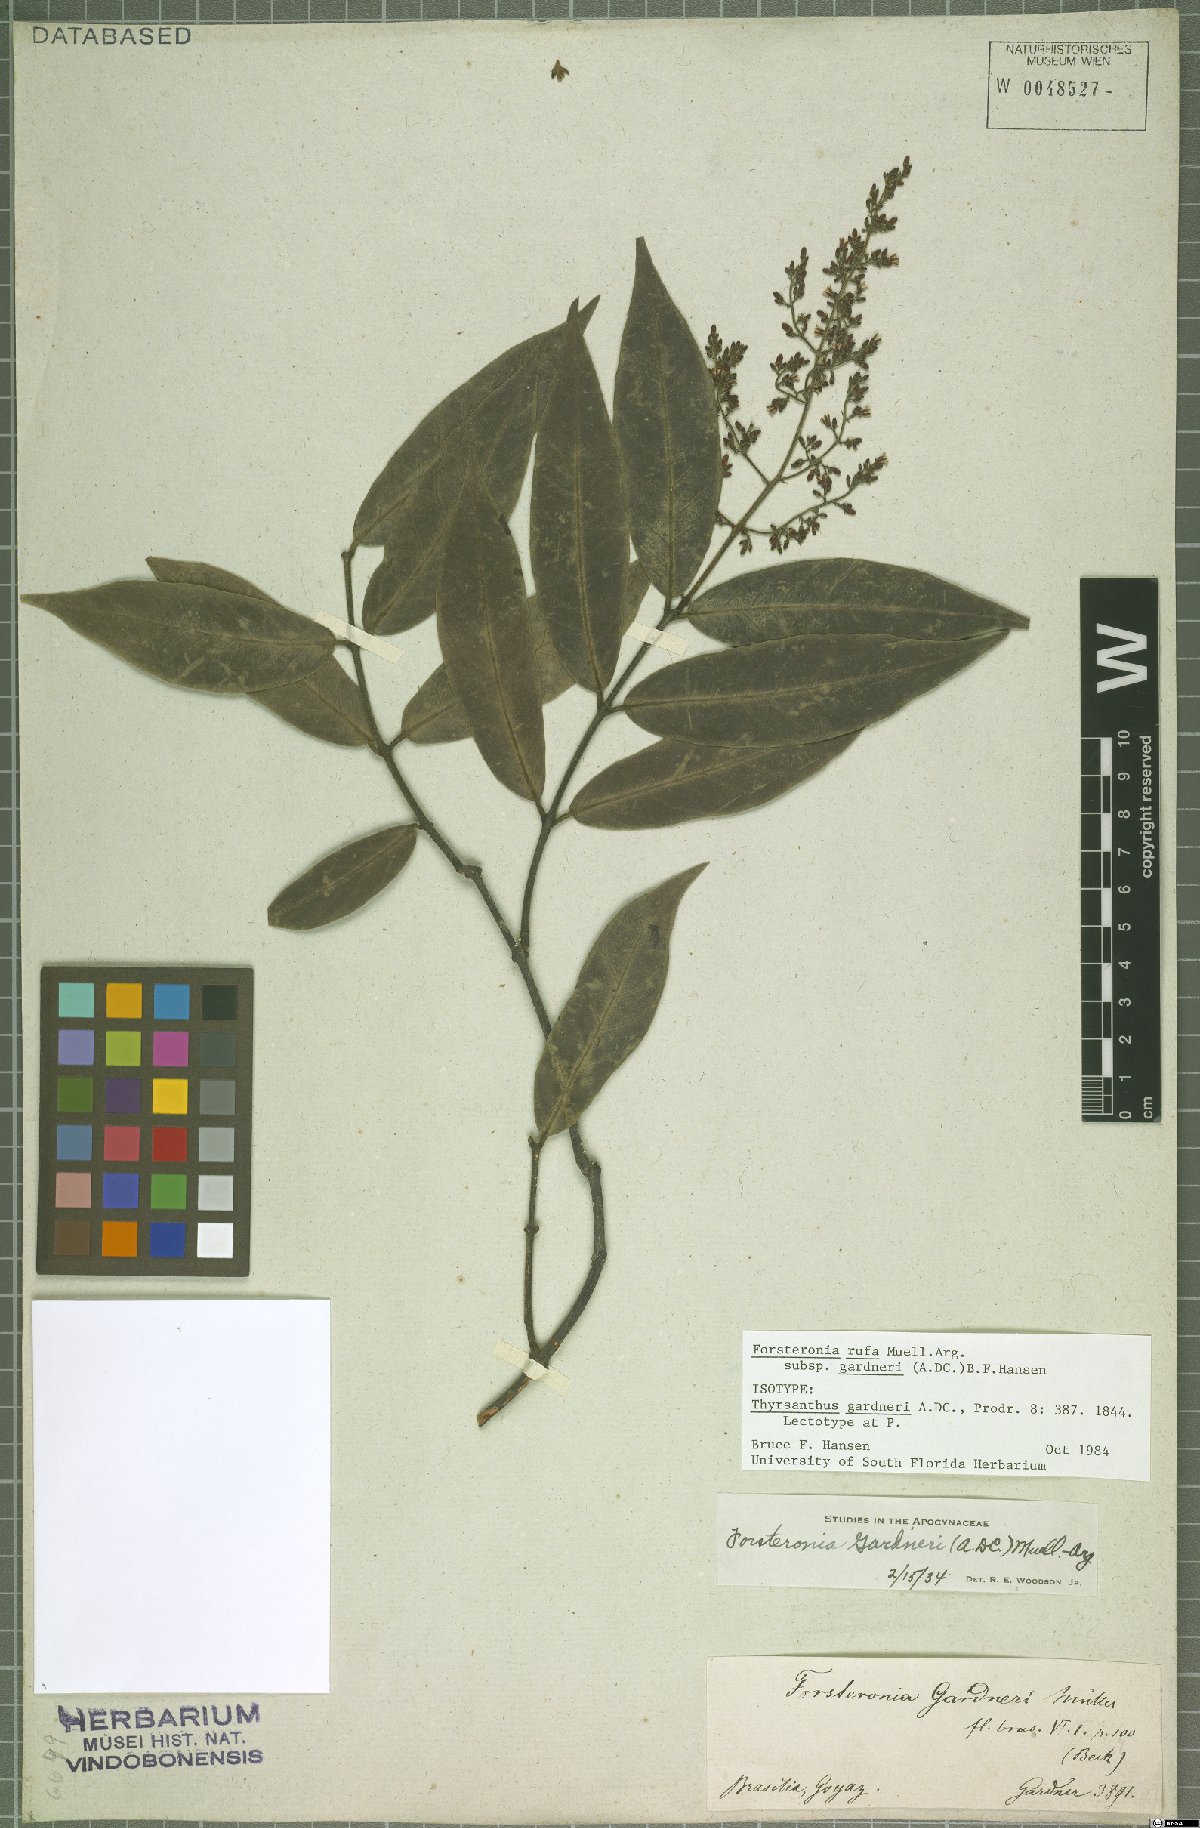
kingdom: Plantae
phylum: Tracheophyta
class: Magnoliopsida
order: Gentianales
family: Apocynaceae
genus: Forsteronia
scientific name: Forsteronia rufa
